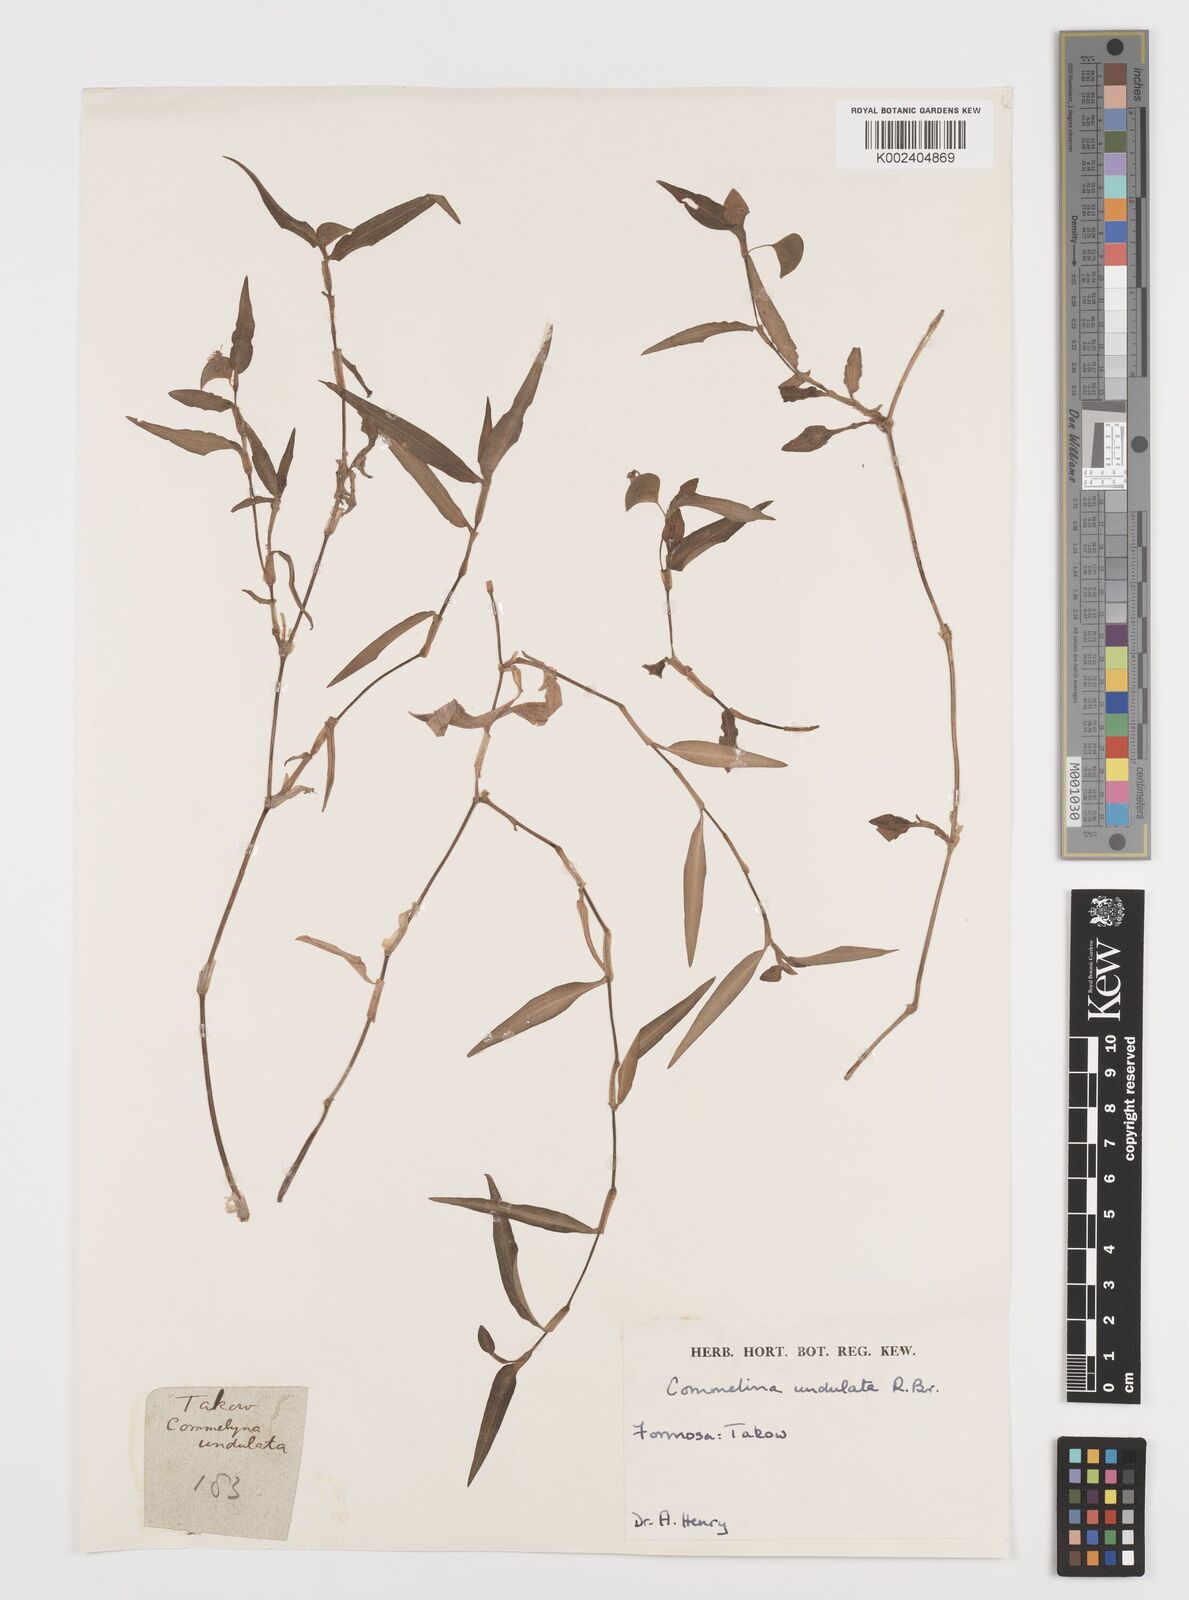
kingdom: Plantae
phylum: Tracheophyta
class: Liliopsida
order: Commelinales
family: Commelinaceae
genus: Commelina
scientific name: Commelina undulata
